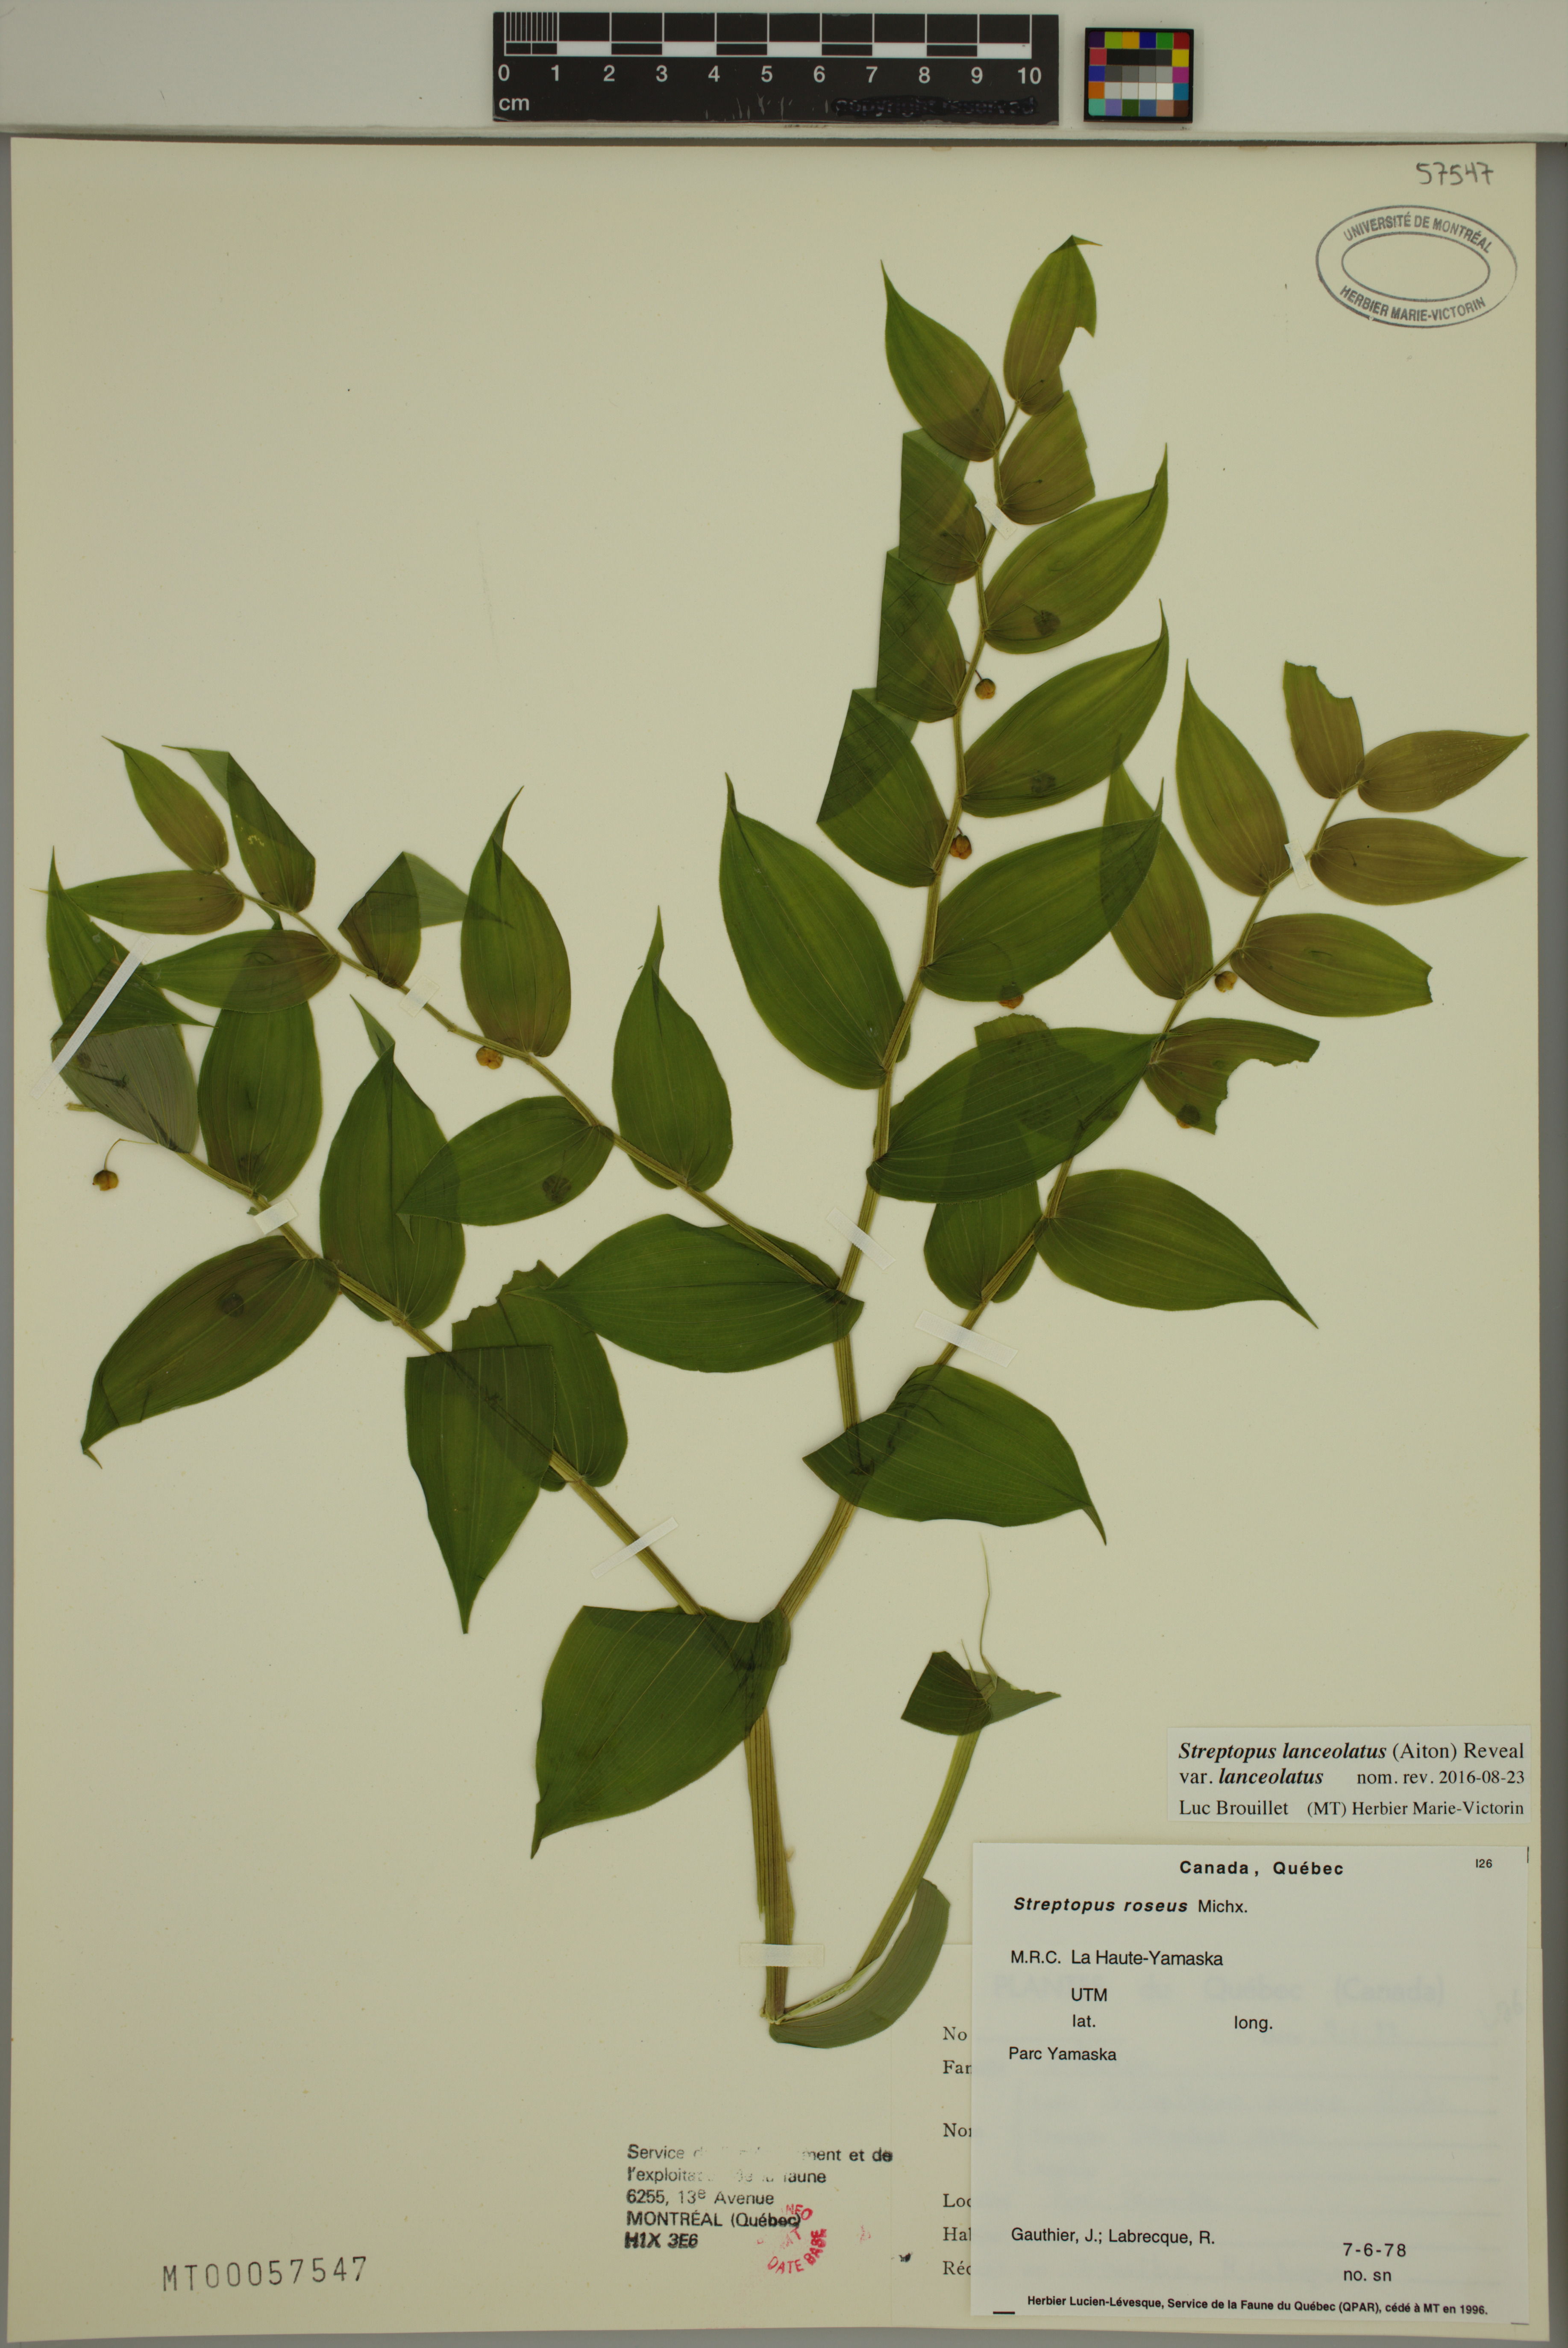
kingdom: Plantae
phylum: Tracheophyta
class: Liliopsida
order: Liliales
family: Liliaceae
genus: Streptopus
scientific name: Streptopus lanceolatus
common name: Rose mandarin
